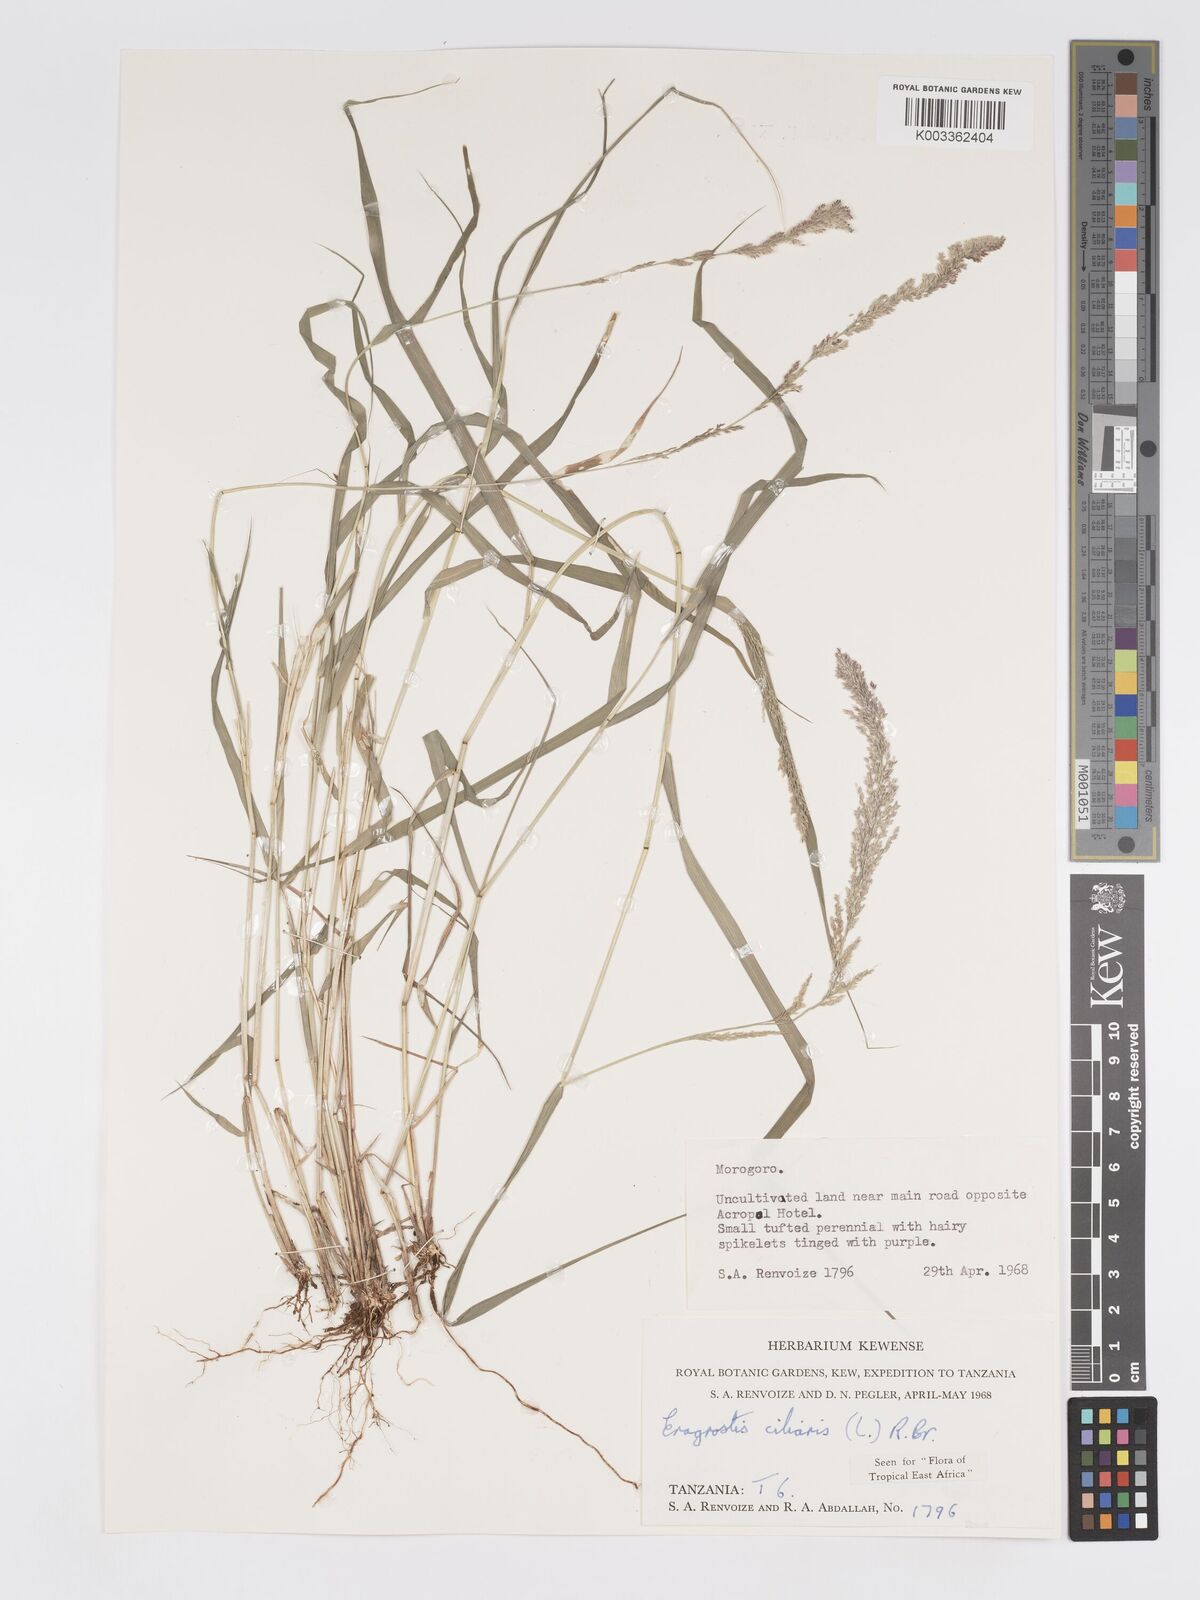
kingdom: Plantae
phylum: Tracheophyta
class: Liliopsida
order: Poales
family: Poaceae
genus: Eragrostis
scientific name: Eragrostis ciliaris
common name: Gophertail lovegrass
